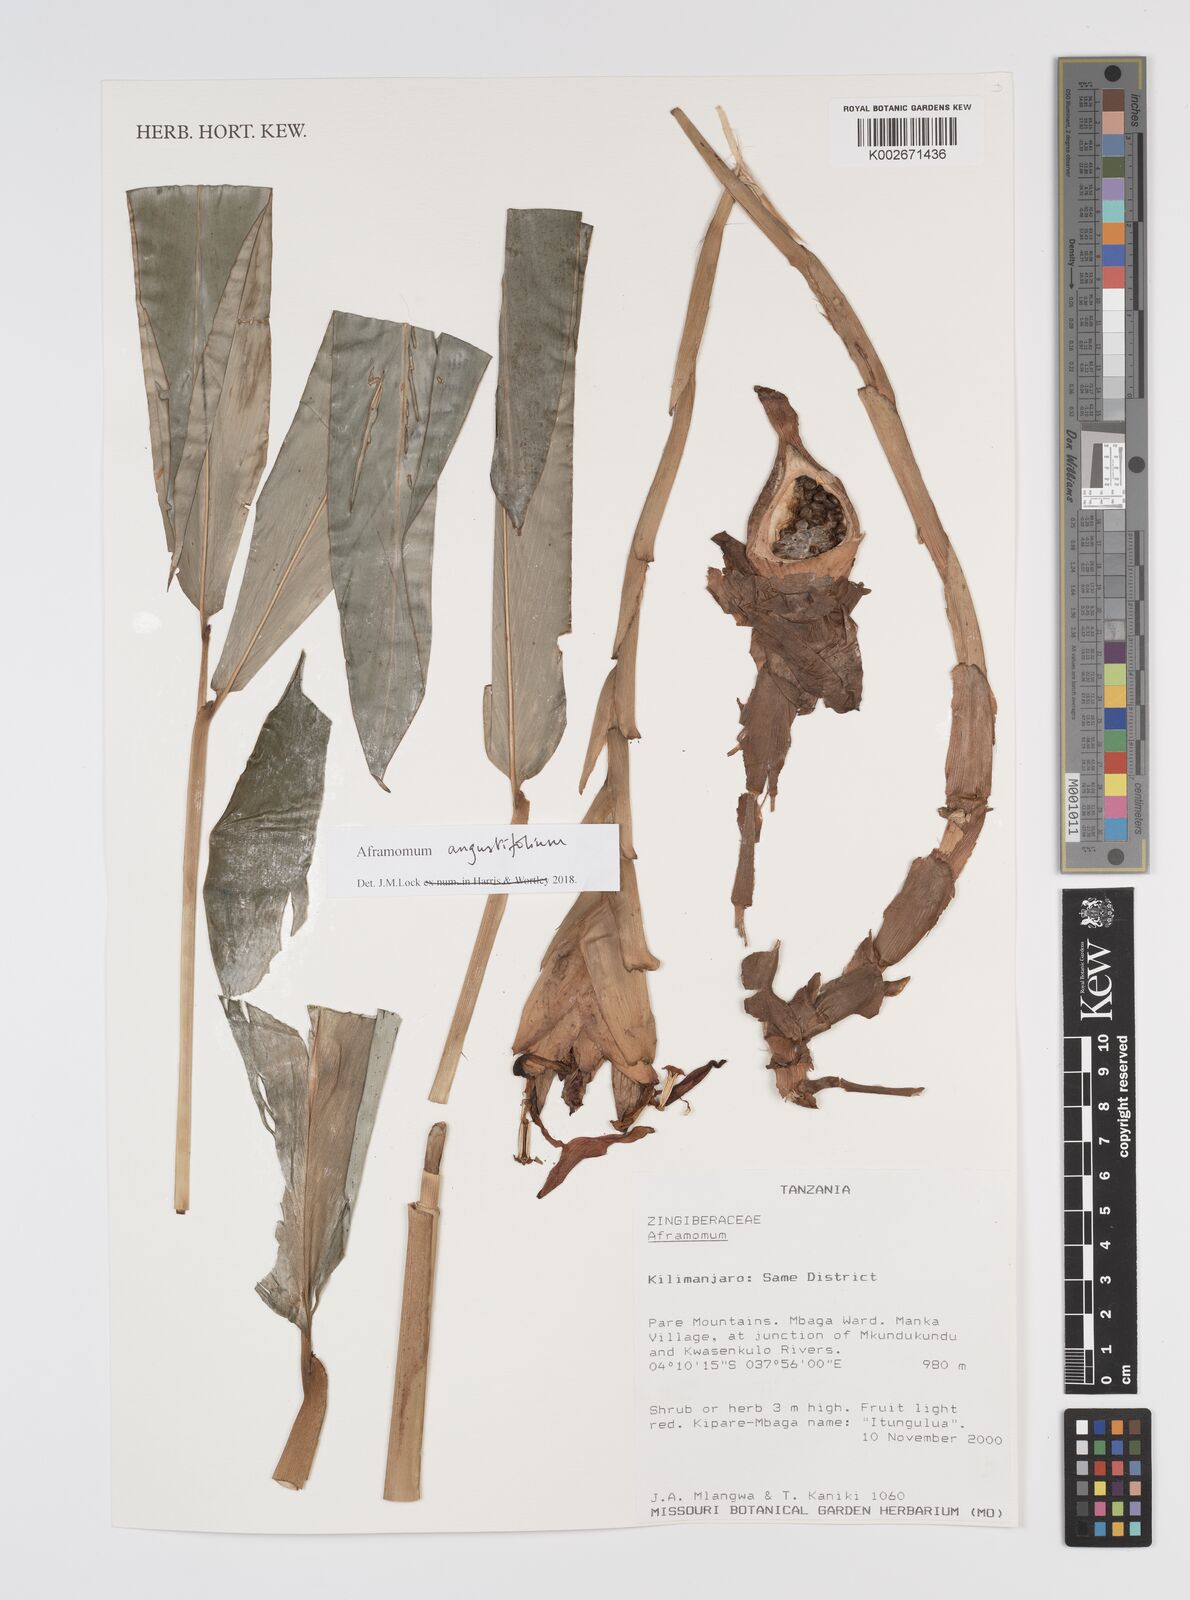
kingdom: Plantae
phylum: Tracheophyta
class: Liliopsida
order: Zingiberales
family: Zingiberaceae
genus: Aframomum
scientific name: Aframomum angustifolium
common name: Guinea grains
